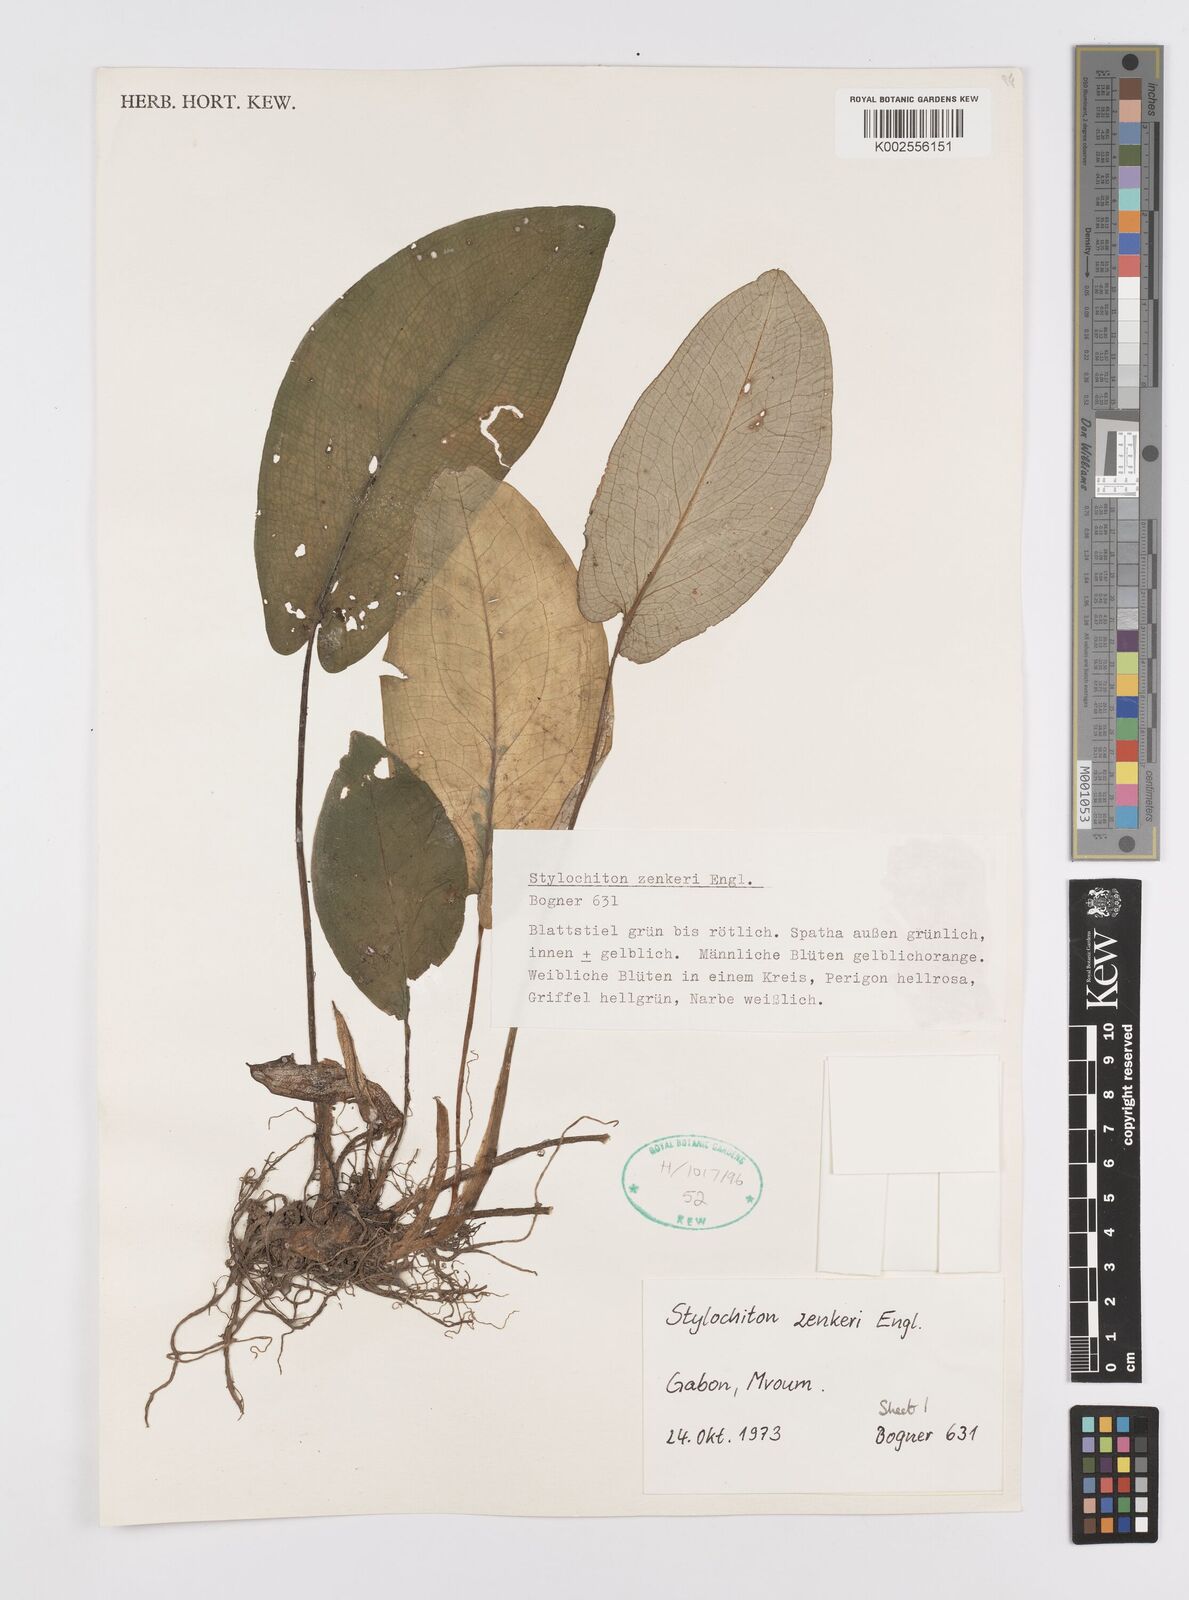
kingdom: Plantae
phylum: Tracheophyta
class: Liliopsida
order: Alismatales
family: Araceae
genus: Stylochaeton
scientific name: Stylochaeton zenkeri
